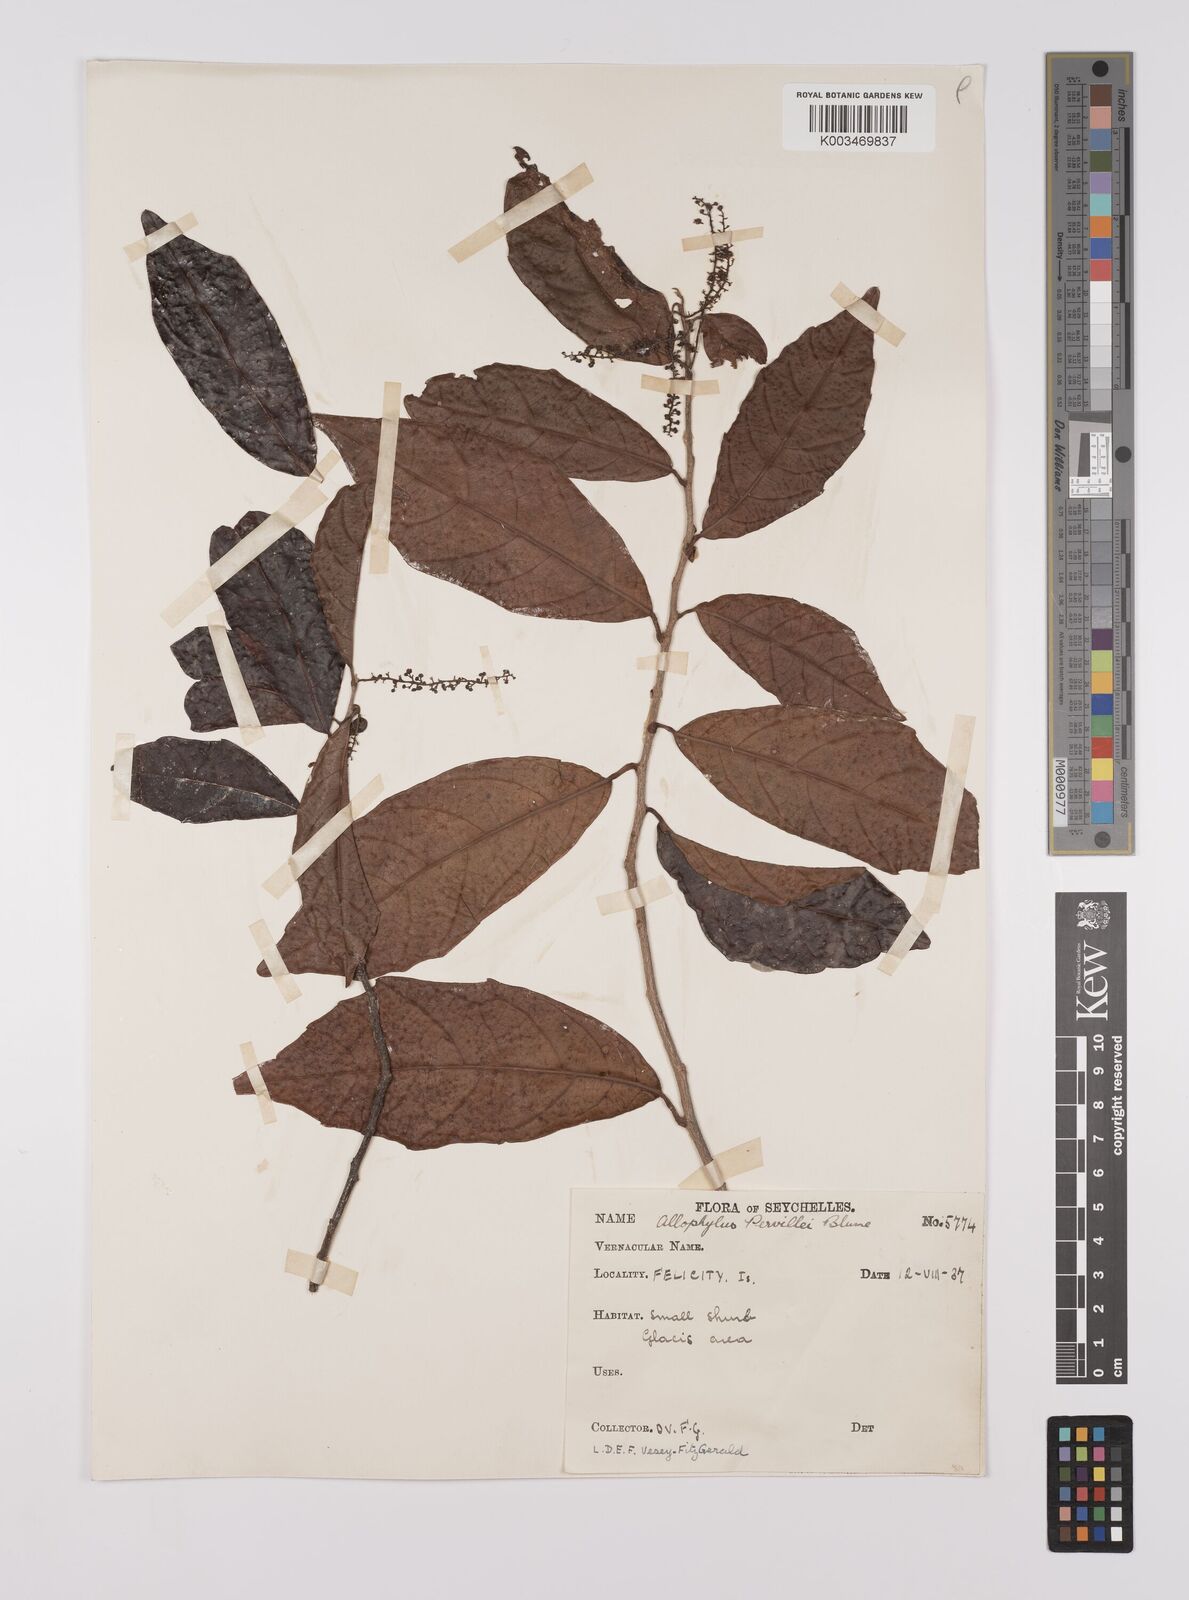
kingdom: Plantae
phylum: Tracheophyta
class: Magnoliopsida
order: Sapindales
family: Sapindaceae
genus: Allophylus
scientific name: Allophylus pervillei
